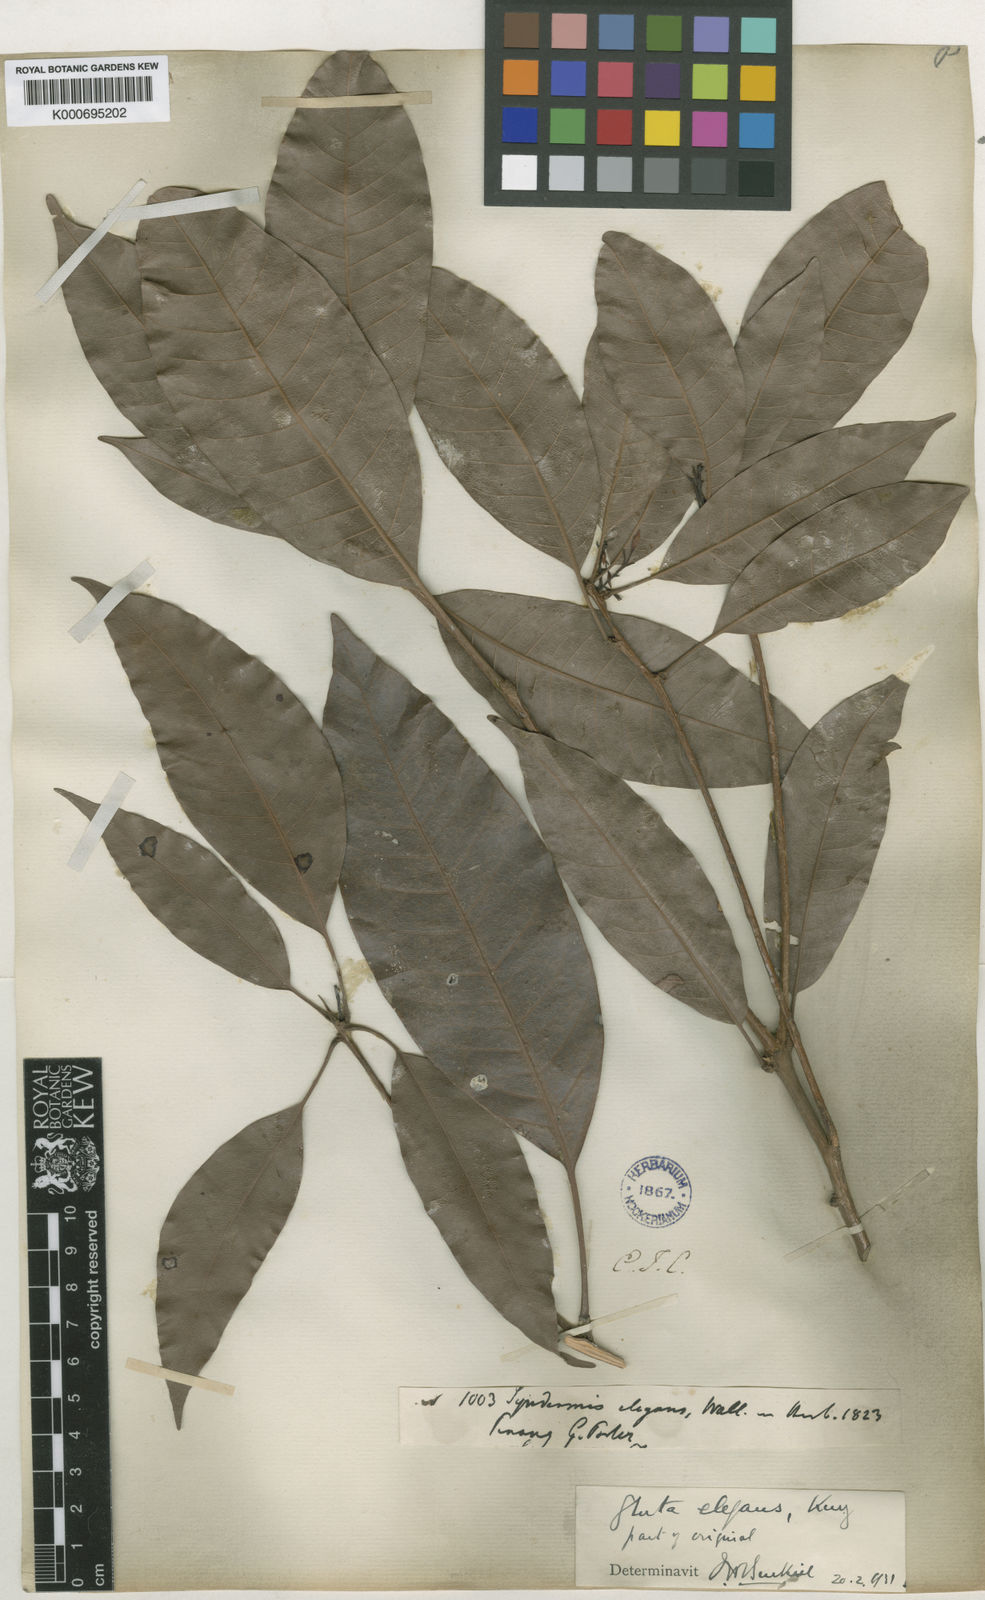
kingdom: Plantae
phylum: Tracheophyta
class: Magnoliopsida
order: Sapindales
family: Anacardiaceae
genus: Gluta
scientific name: Gluta elegans
